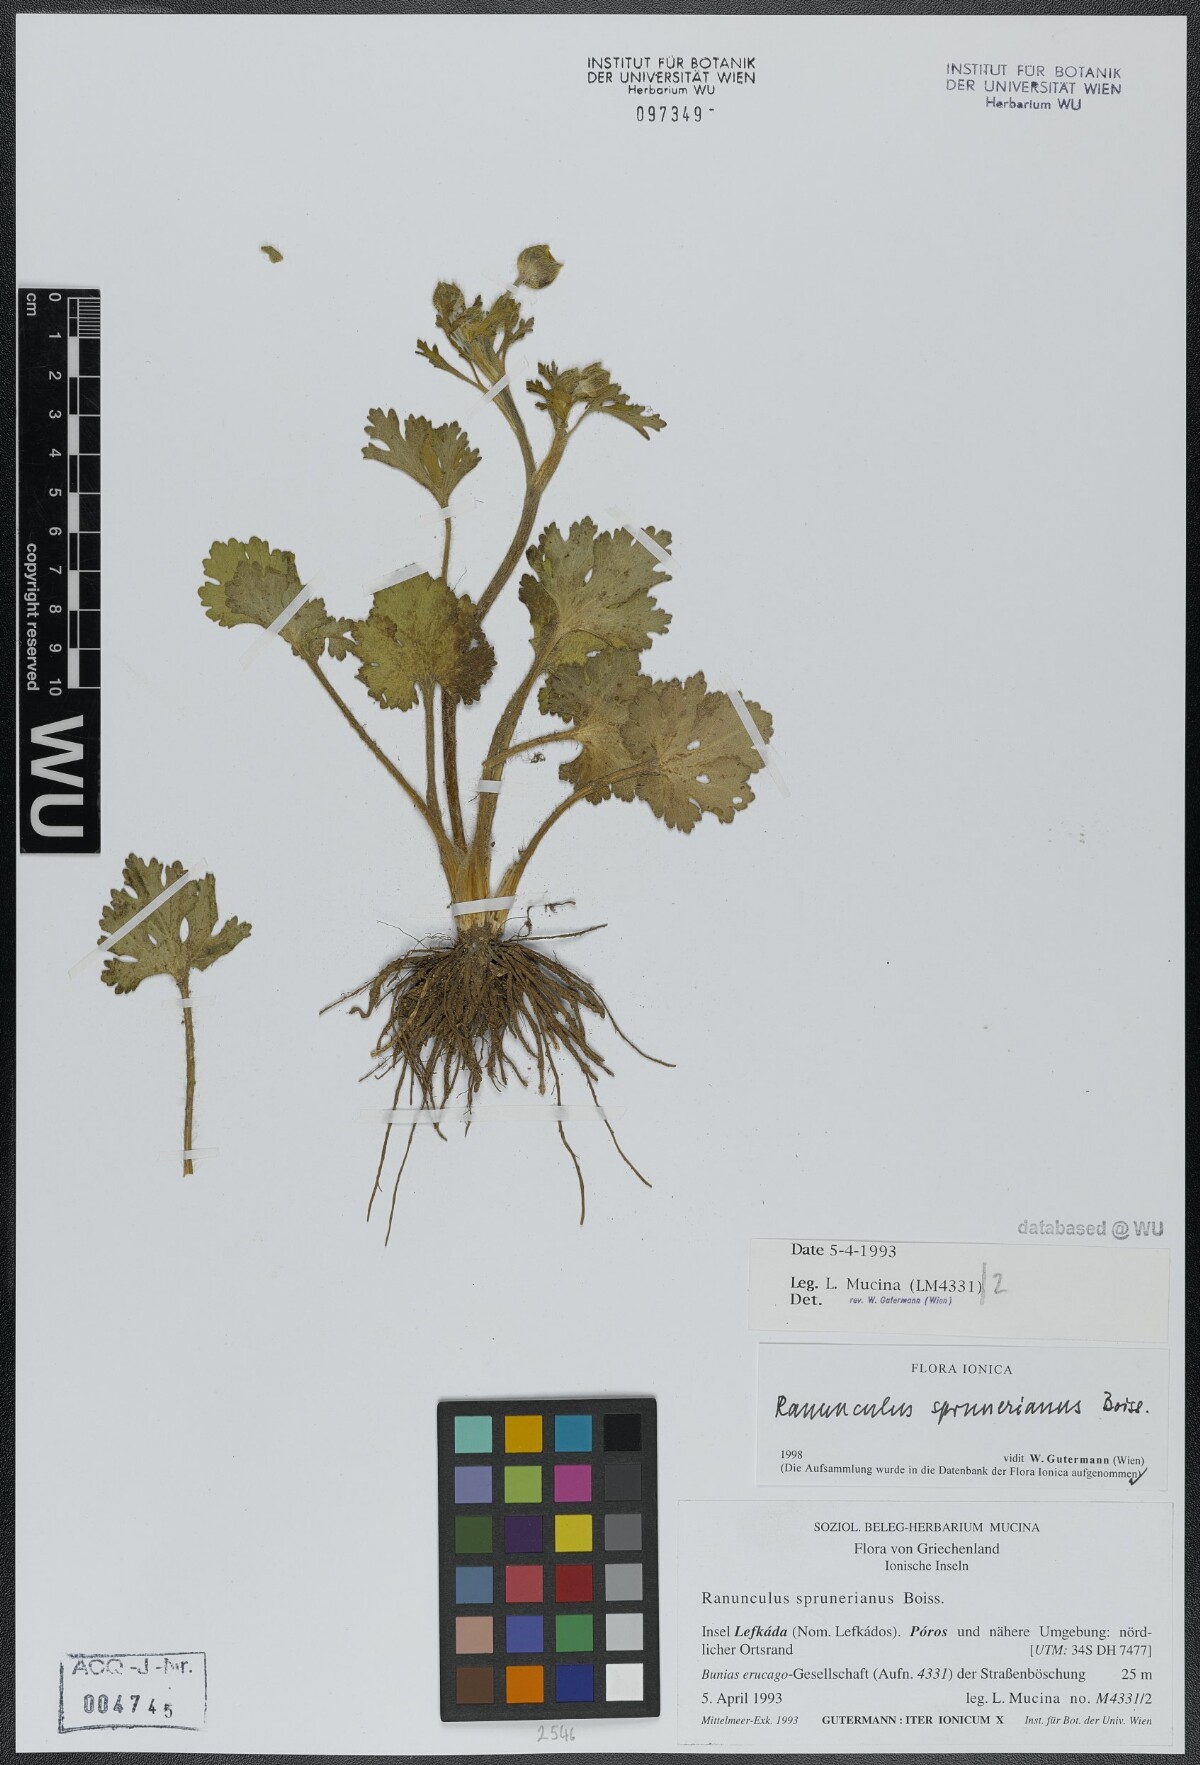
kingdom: Plantae
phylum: Tracheophyta
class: Magnoliopsida
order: Ranunculales
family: Ranunculaceae
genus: Ranunculus
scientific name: Ranunculus sprunerianus
